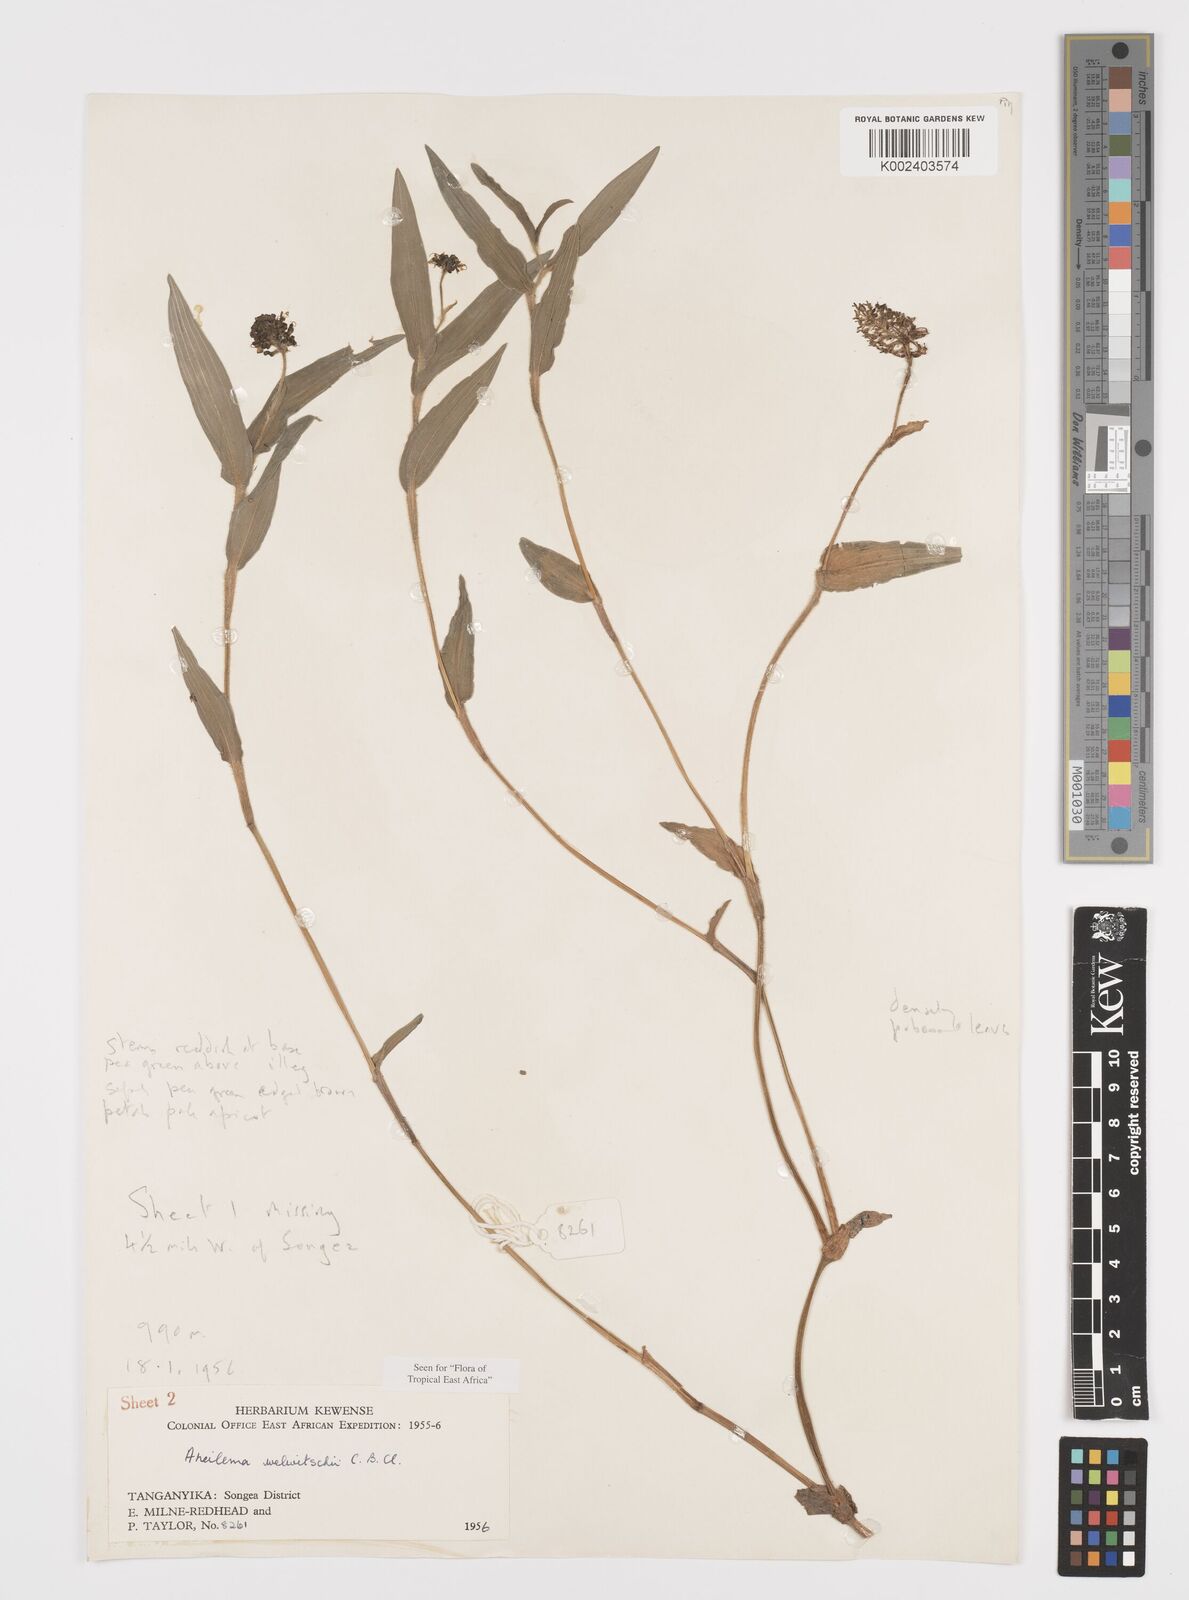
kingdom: Plantae
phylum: Tracheophyta
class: Liliopsida
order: Commelinales
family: Commelinaceae
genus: Aneilema
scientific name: Aneilema welwitschii
